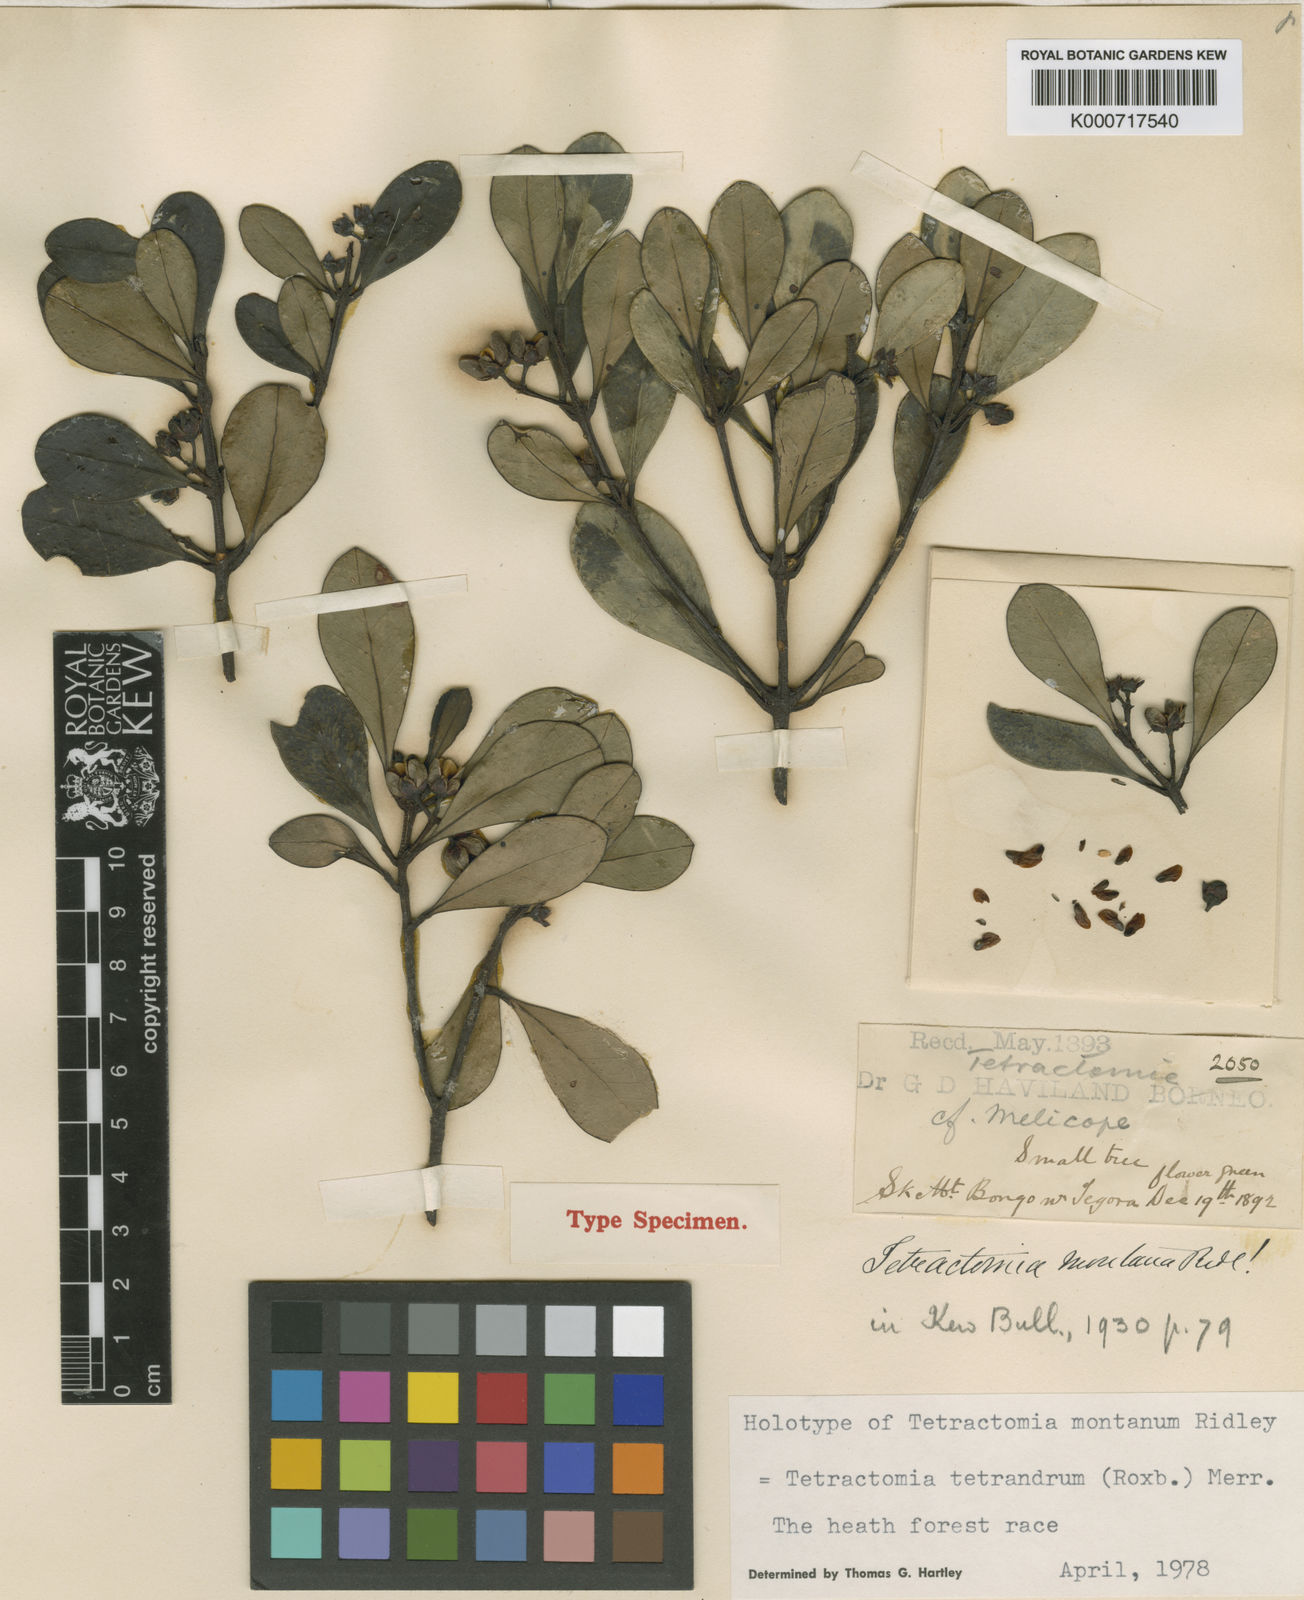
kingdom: Plantae
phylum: Tracheophyta
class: Magnoliopsida
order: Sapindales
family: Rutaceae
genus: Tetractomia
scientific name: Tetractomia tetrandra
